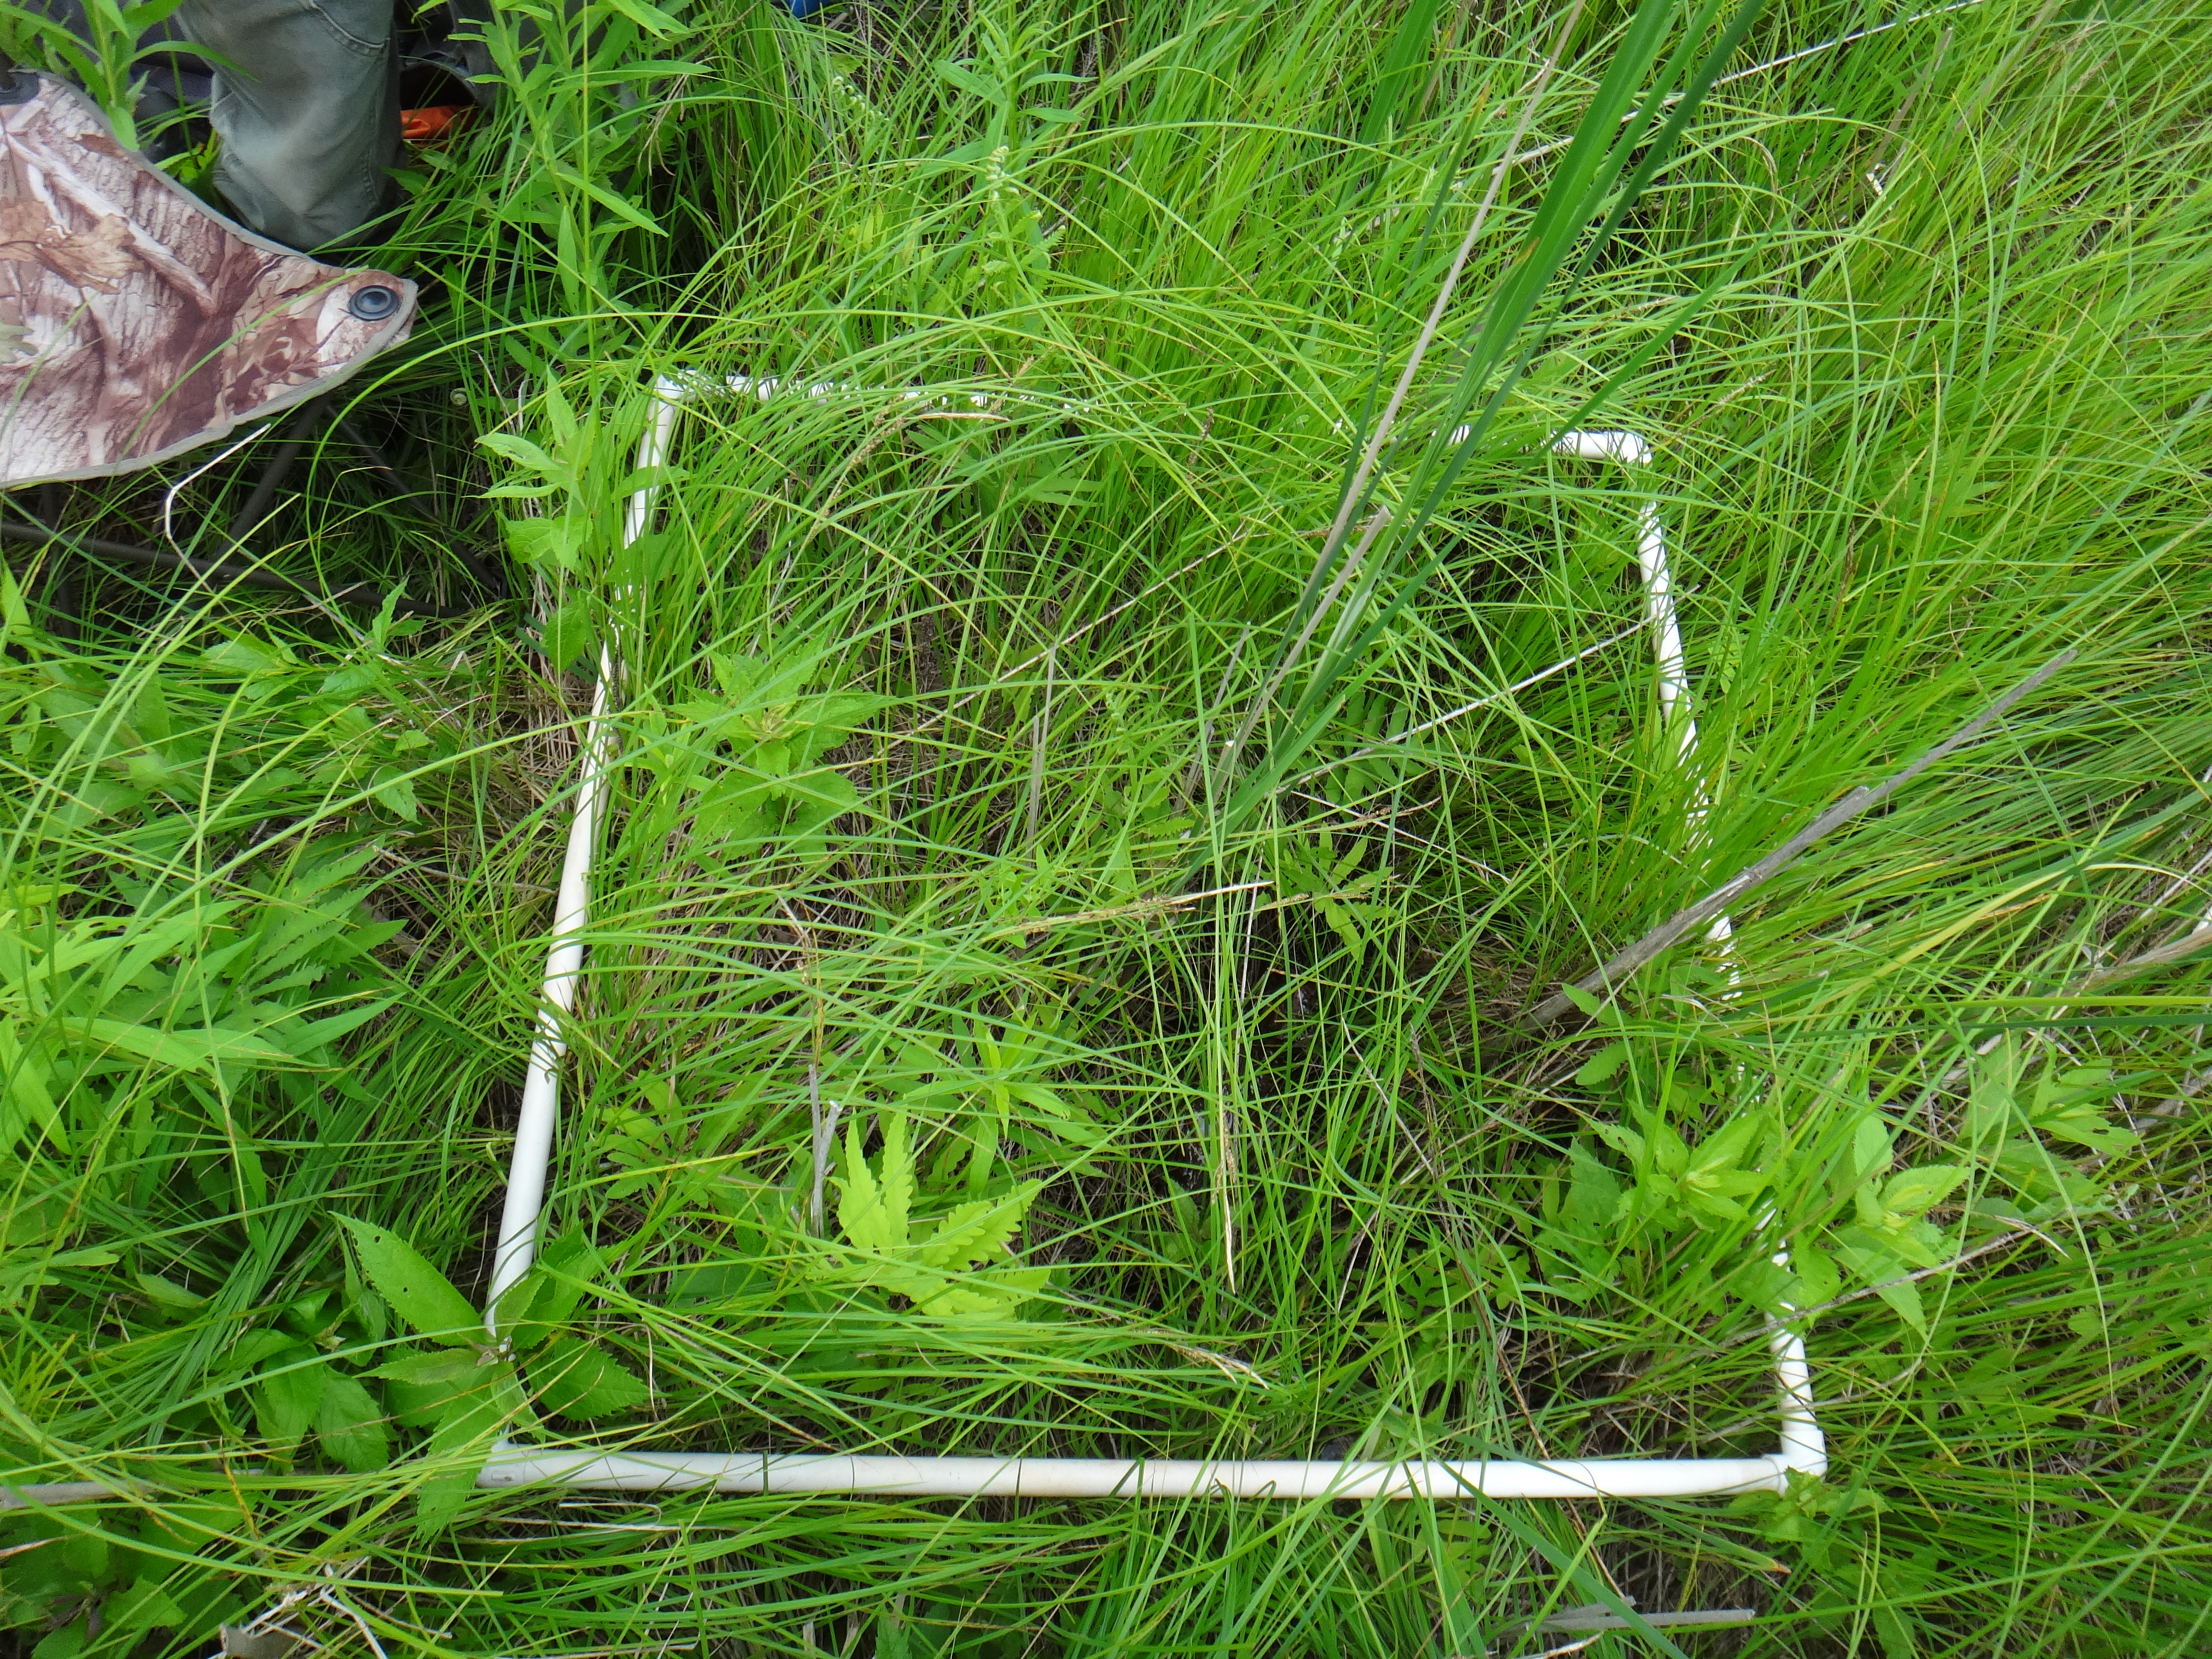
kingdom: Plantae
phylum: Tracheophyta
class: Liliopsida
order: Poales
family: Cyperaceae
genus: Carex
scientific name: Carex aquatilis
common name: Water sedge
